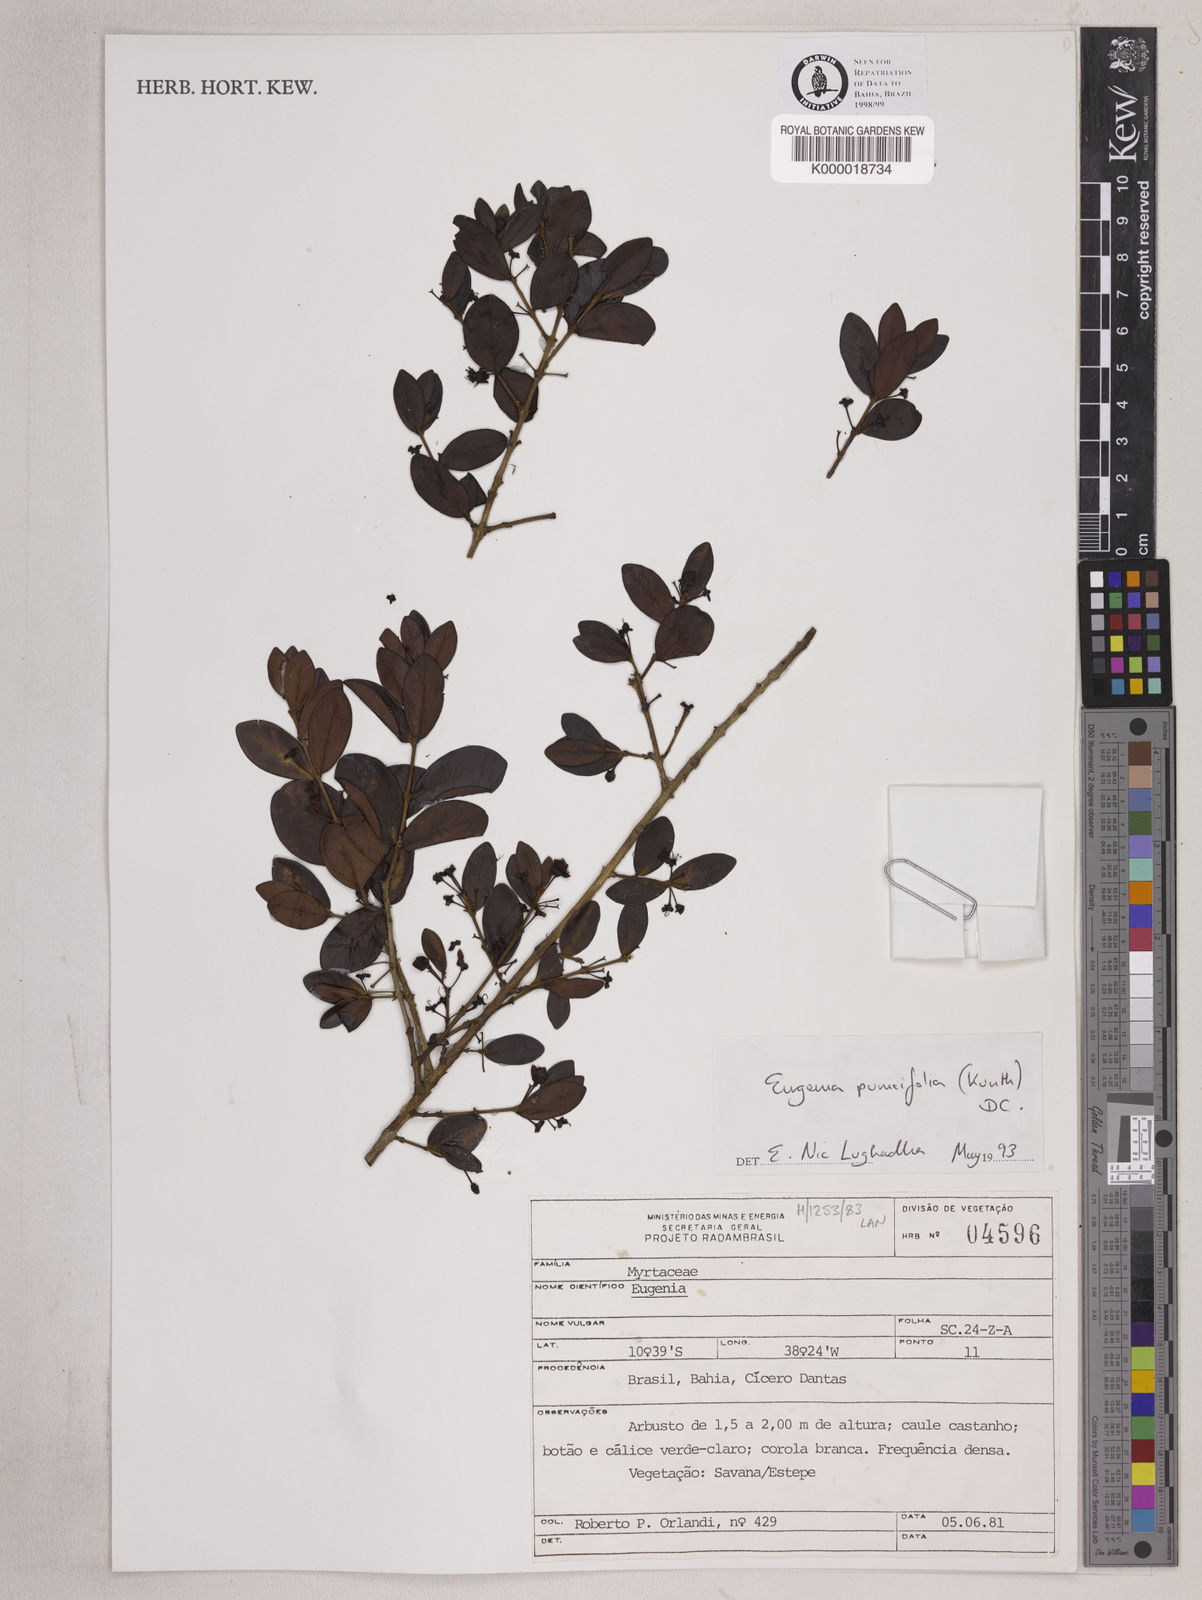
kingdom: Plantae
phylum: Tracheophyta
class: Magnoliopsida
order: Myrtales
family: Myrtaceae
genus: Eugenia
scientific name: Eugenia punicifolia
